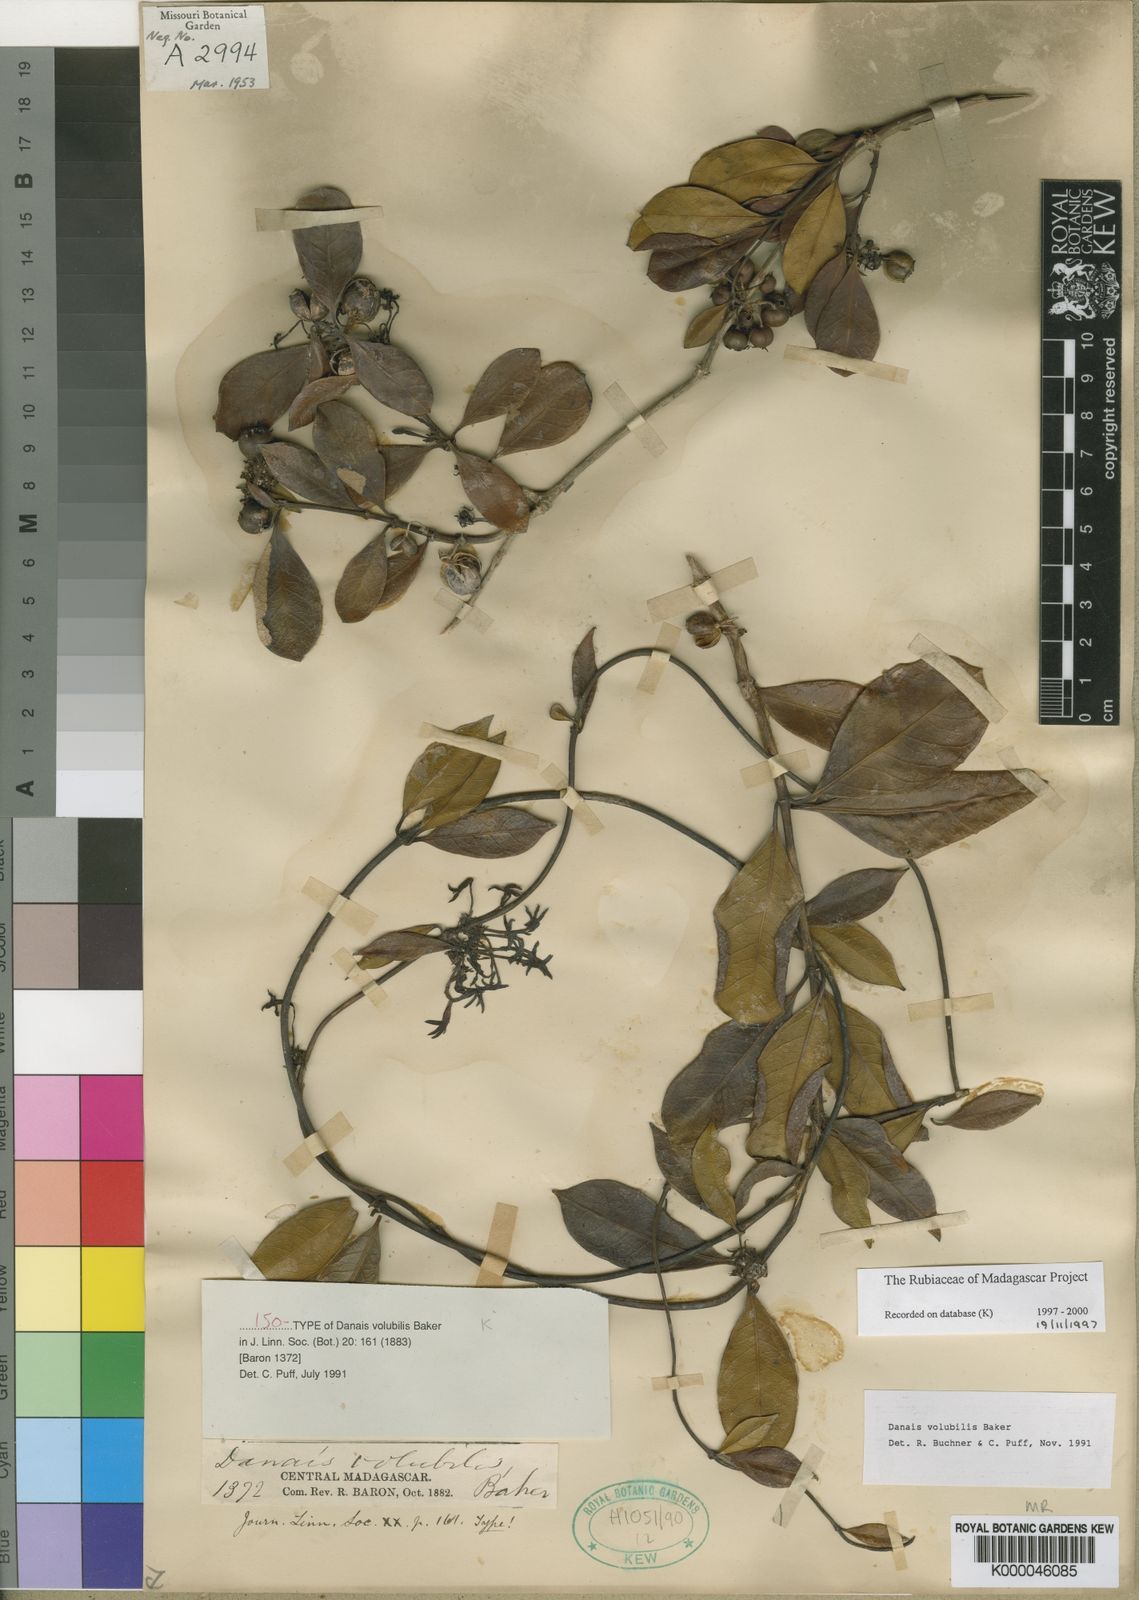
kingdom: Plantae
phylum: Tracheophyta
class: Magnoliopsida
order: Gentianales
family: Rubiaceae
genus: Danais
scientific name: Danais volubilis
